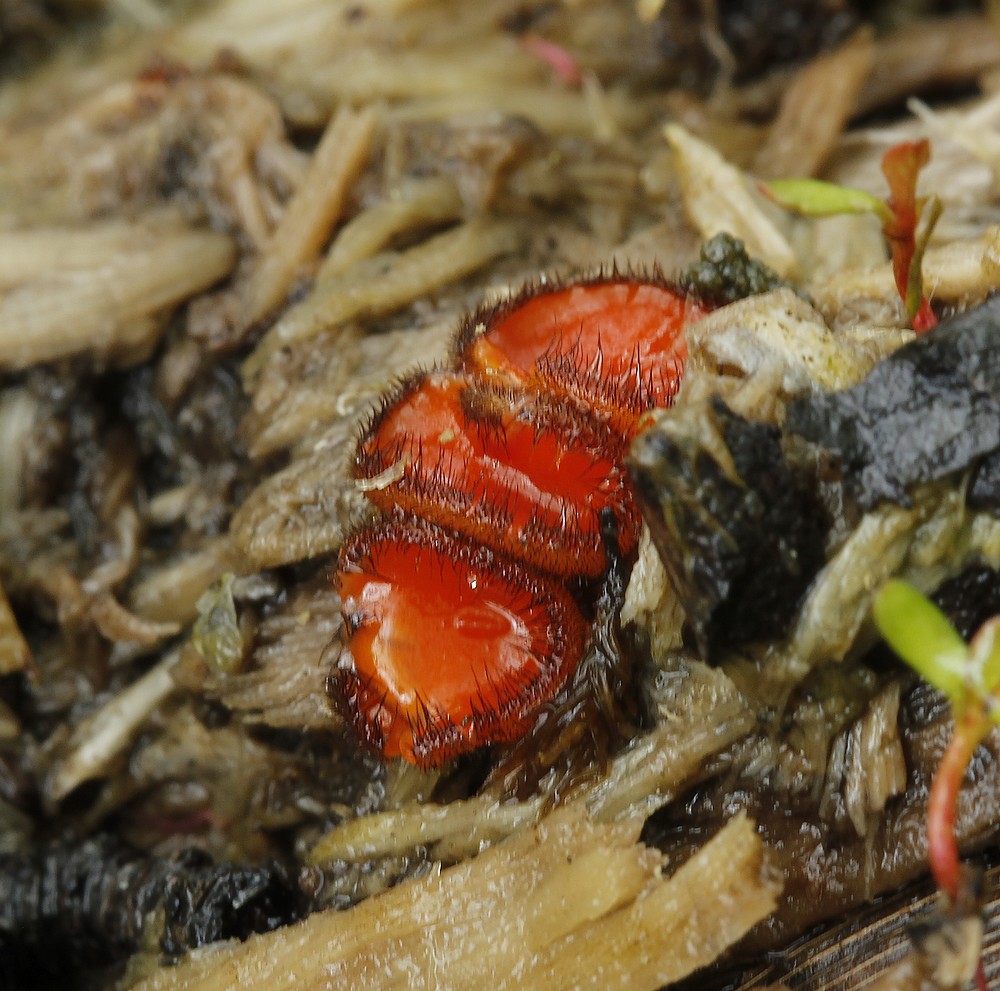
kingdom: Fungi
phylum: Ascomycota
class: Pezizomycetes
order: Pezizales
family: Pyronemataceae
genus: Scutellinia
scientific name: Scutellinia scutellata
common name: frynset skjoldbæger
